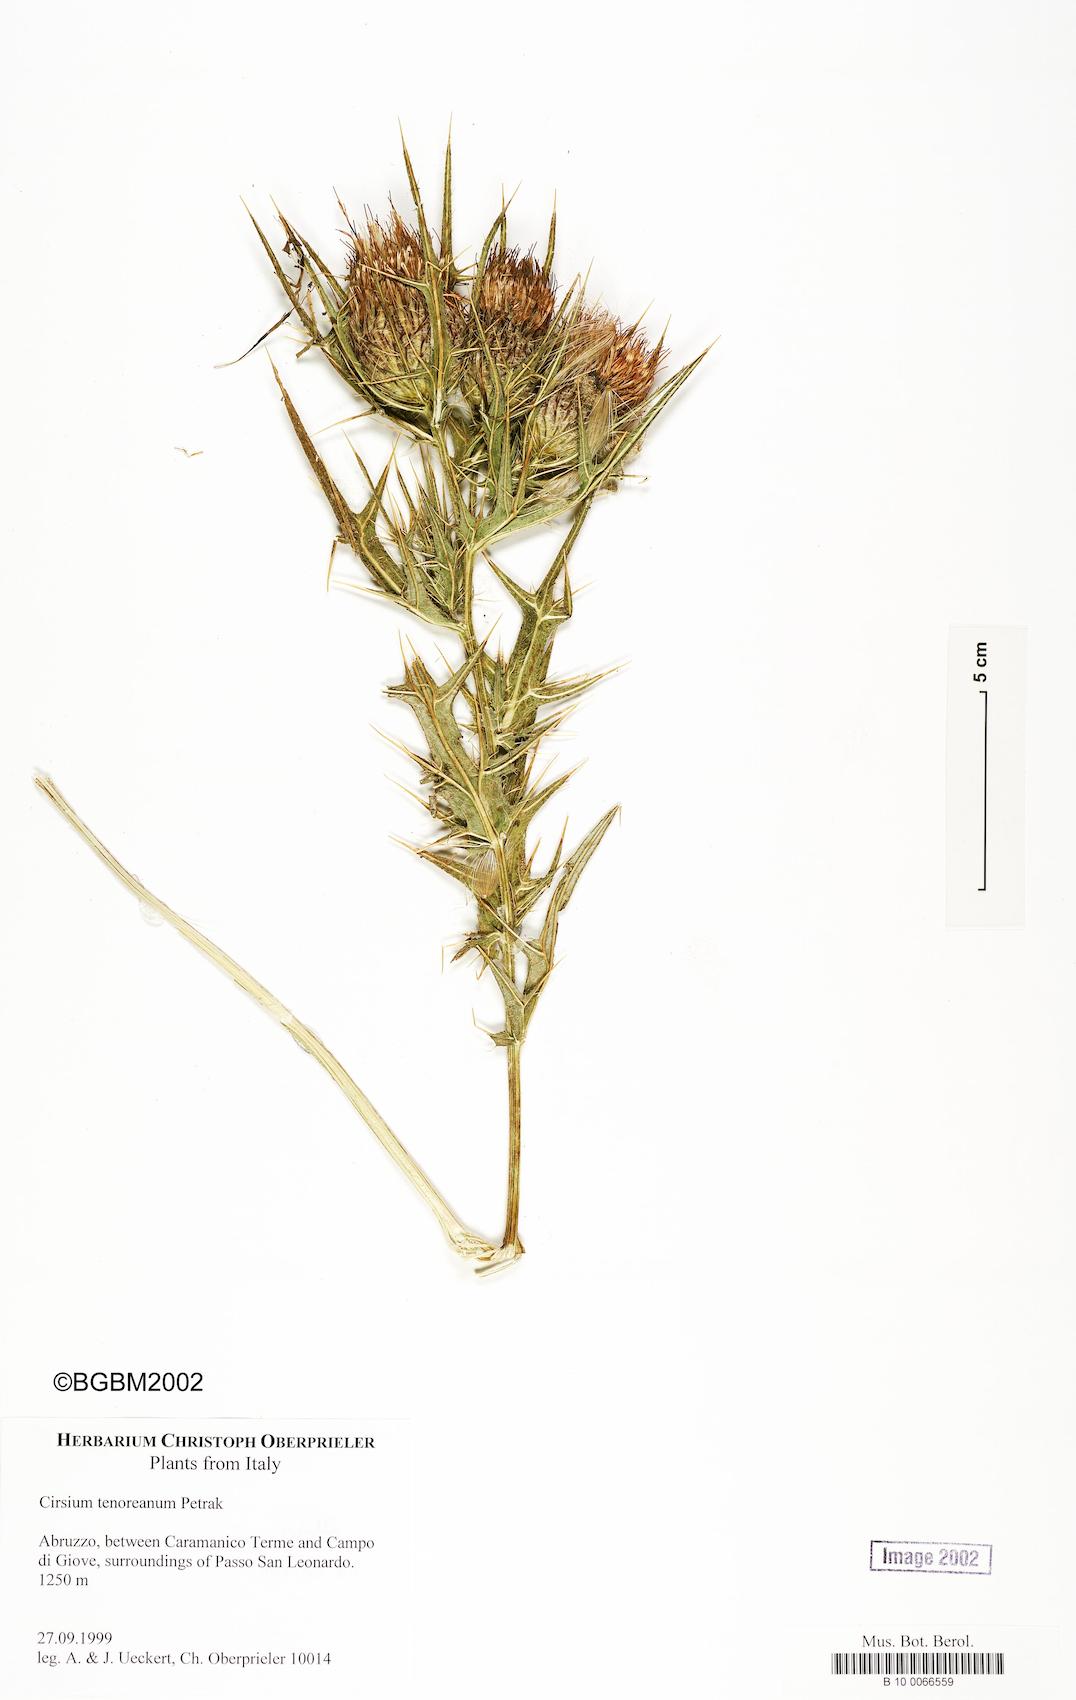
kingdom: Plantae
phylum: Tracheophyta
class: Magnoliopsida
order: Asterales
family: Asteraceae
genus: Lophiolepis
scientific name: Lophiolepis tenoreana
